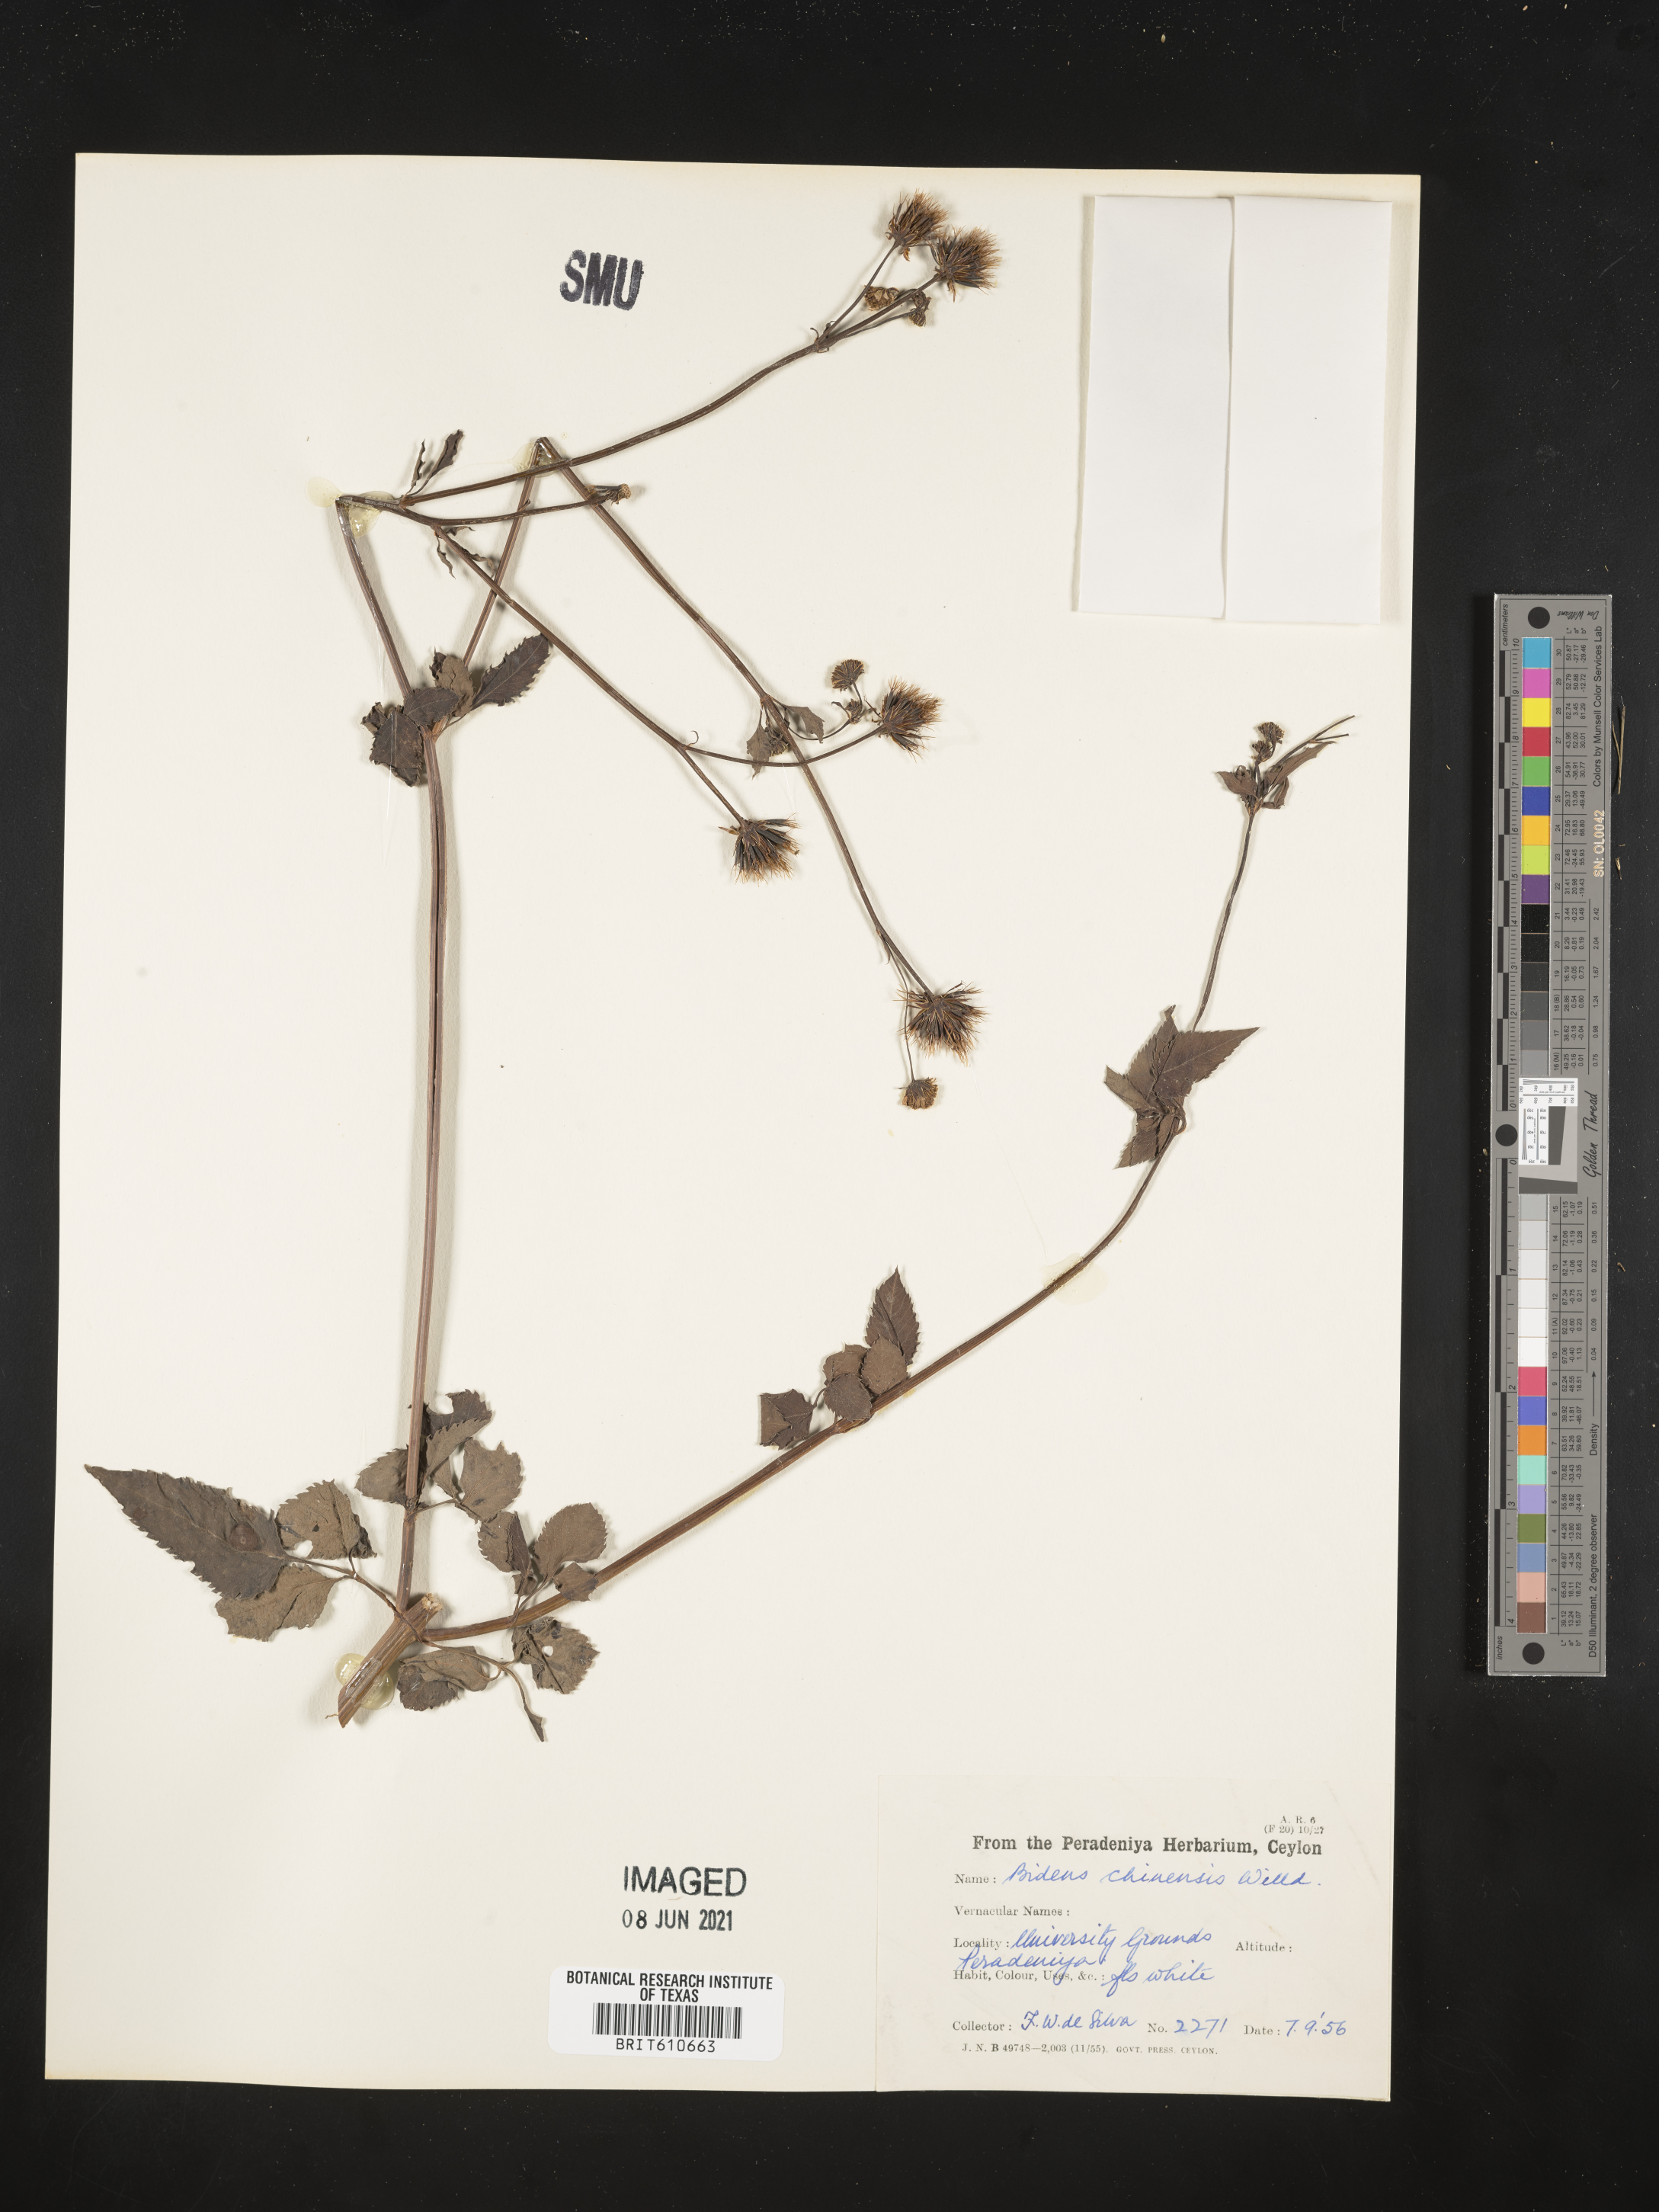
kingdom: Plantae
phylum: Tracheophyta
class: Magnoliopsida
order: Asterales
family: Asteraceae
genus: Bidens
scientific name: Bidens biternata
